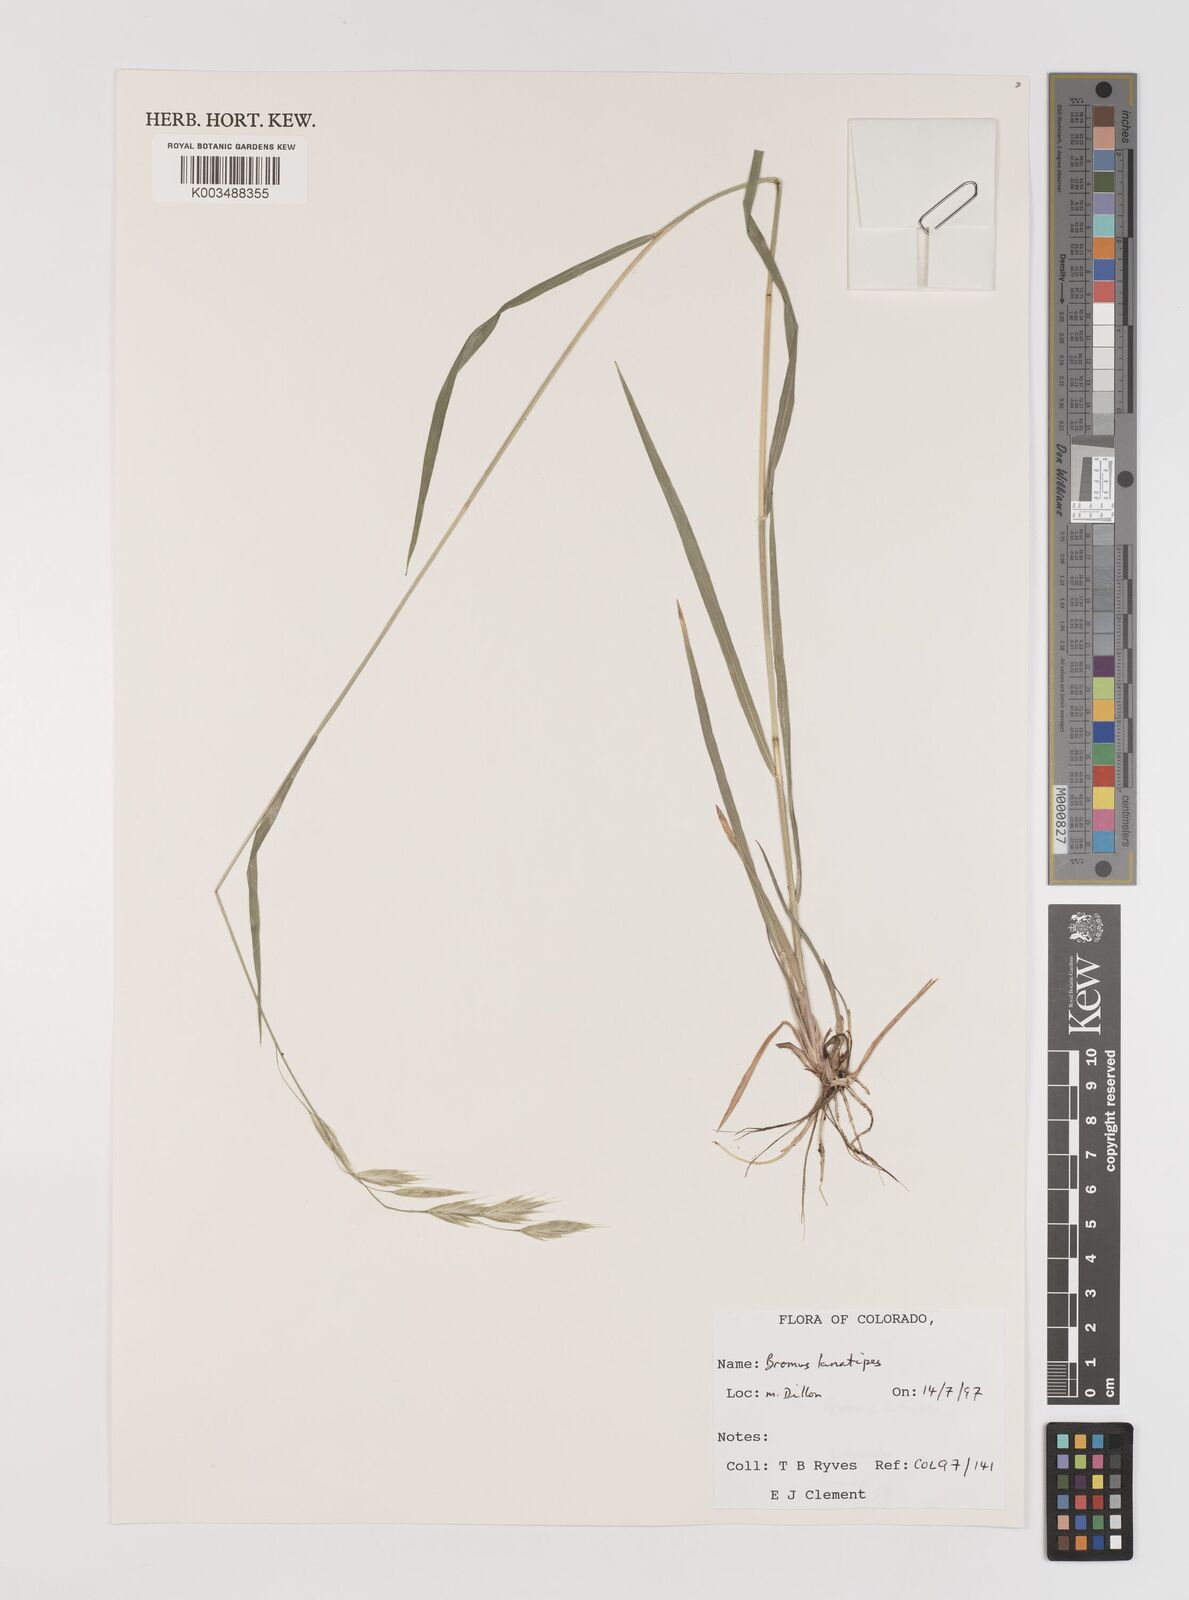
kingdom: Plantae
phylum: Tracheophyta
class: Liliopsida
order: Poales
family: Poaceae
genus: Bromus
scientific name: Bromus lanatipes
